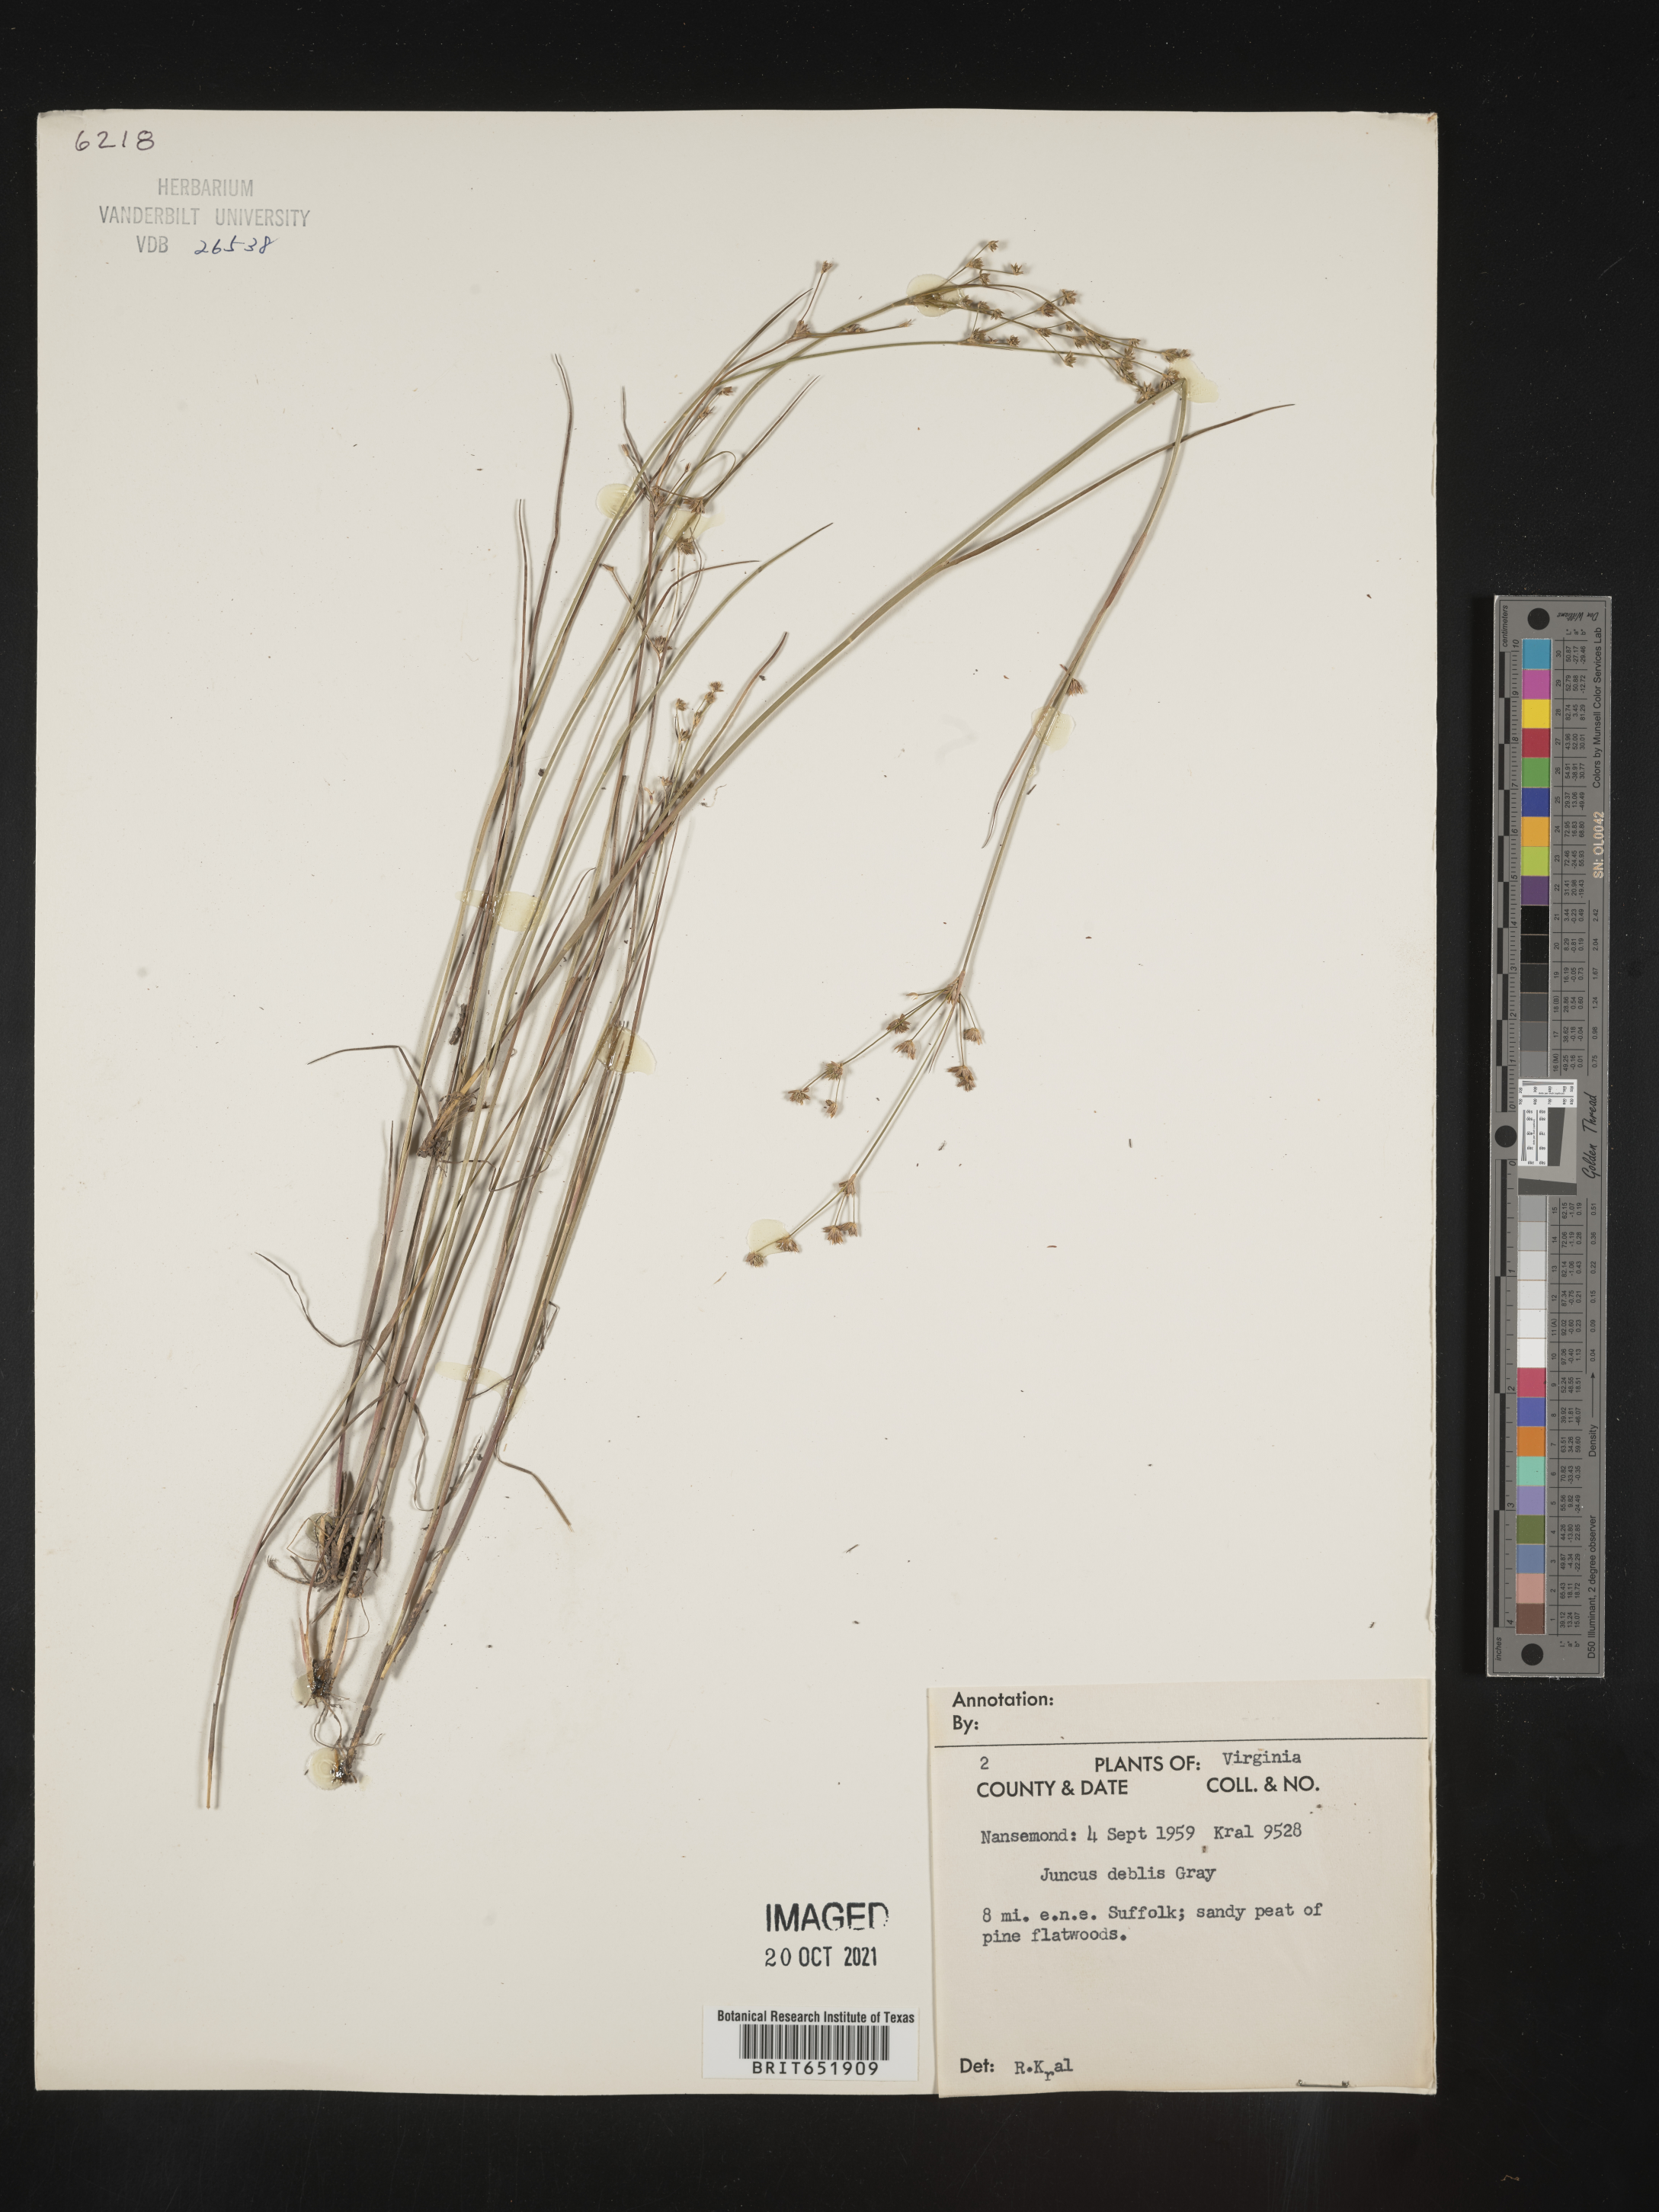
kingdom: Plantae
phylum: Tracheophyta
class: Liliopsida
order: Poales
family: Juncaceae
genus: Juncus
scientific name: Juncus debilis
